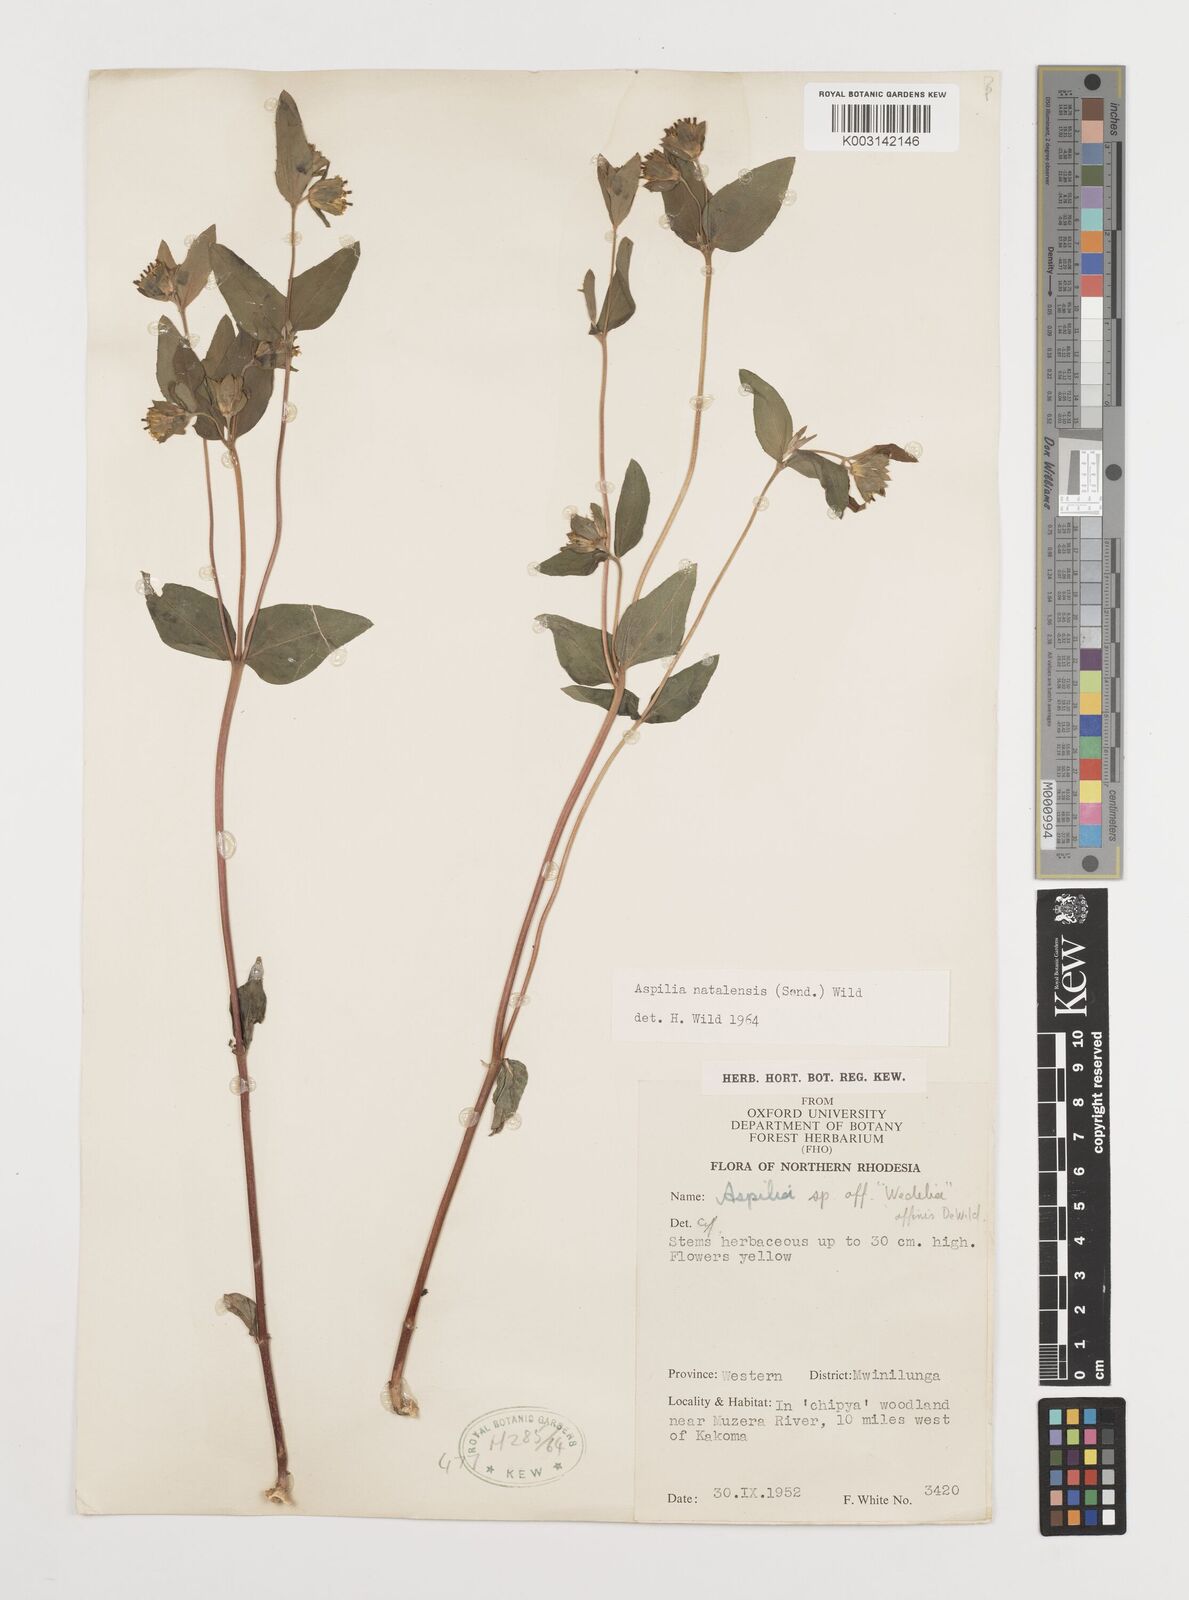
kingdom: Plantae
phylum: Tracheophyta
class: Magnoliopsida
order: Asterales
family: Asteraceae
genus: Aspilia
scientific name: Aspilia natalensis
